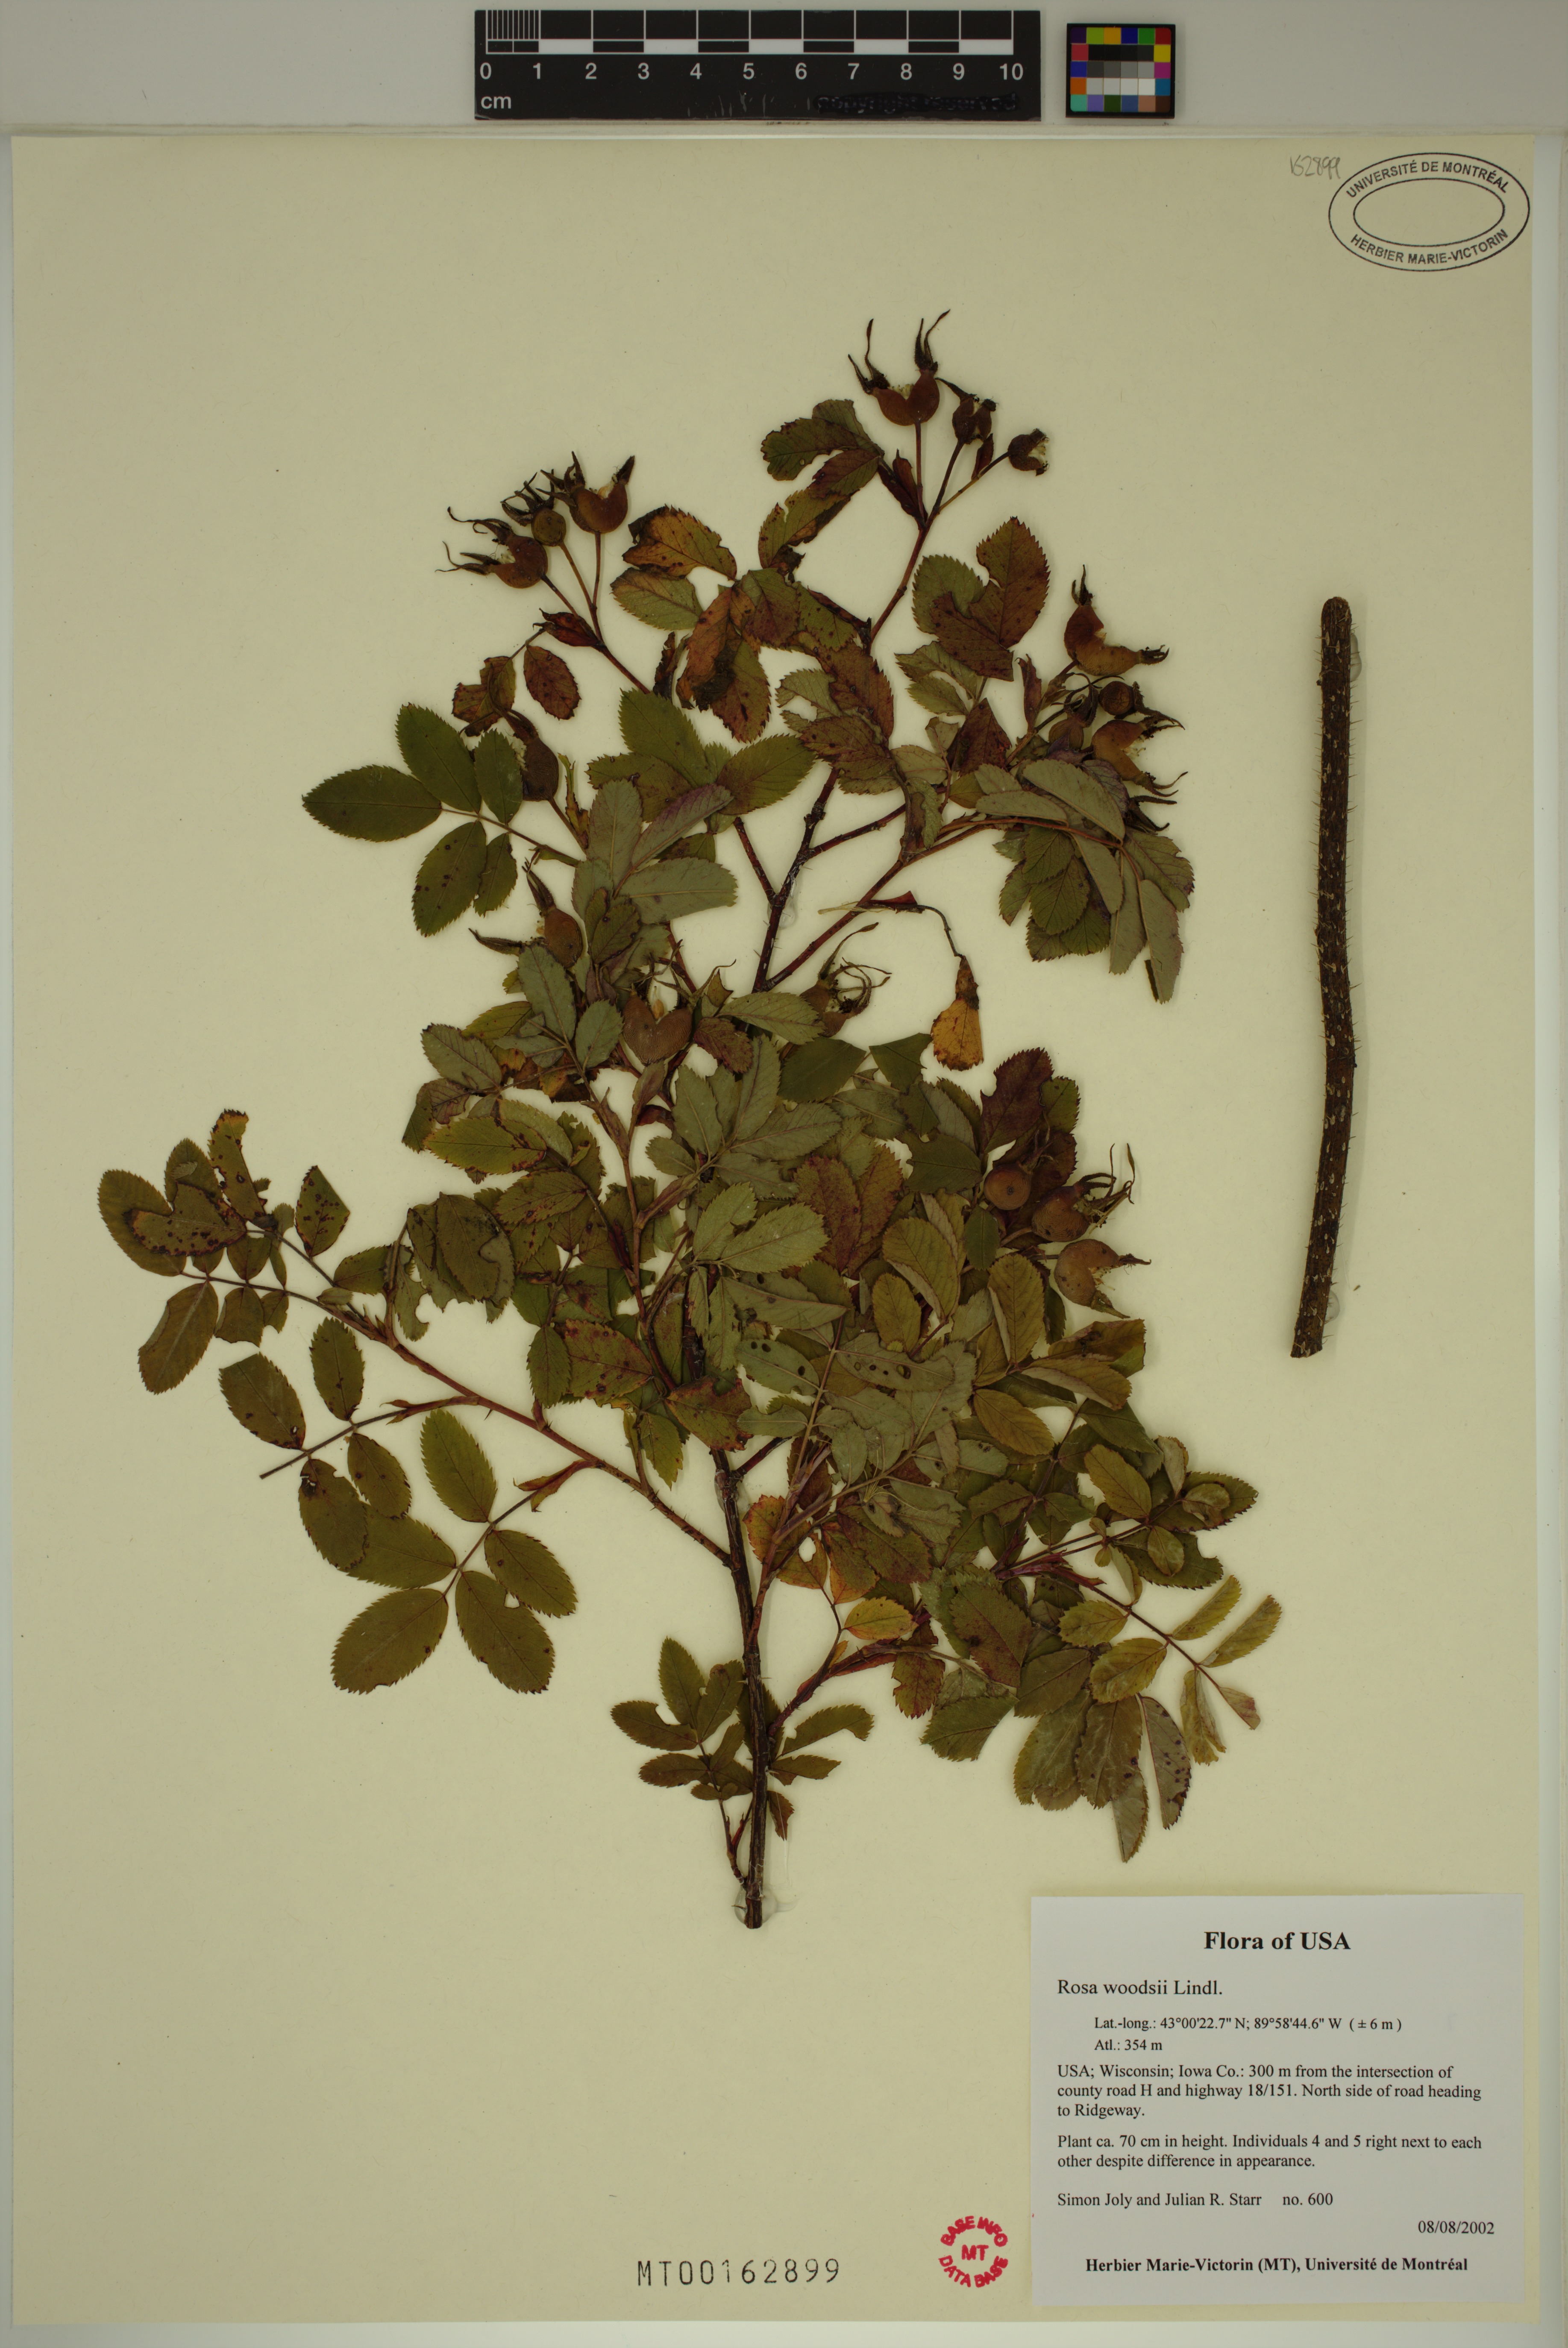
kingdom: Plantae
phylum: Tracheophyta
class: Magnoliopsida
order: Rosales
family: Rosaceae
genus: Rosa
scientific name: Rosa woodsii
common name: Woods's rose
